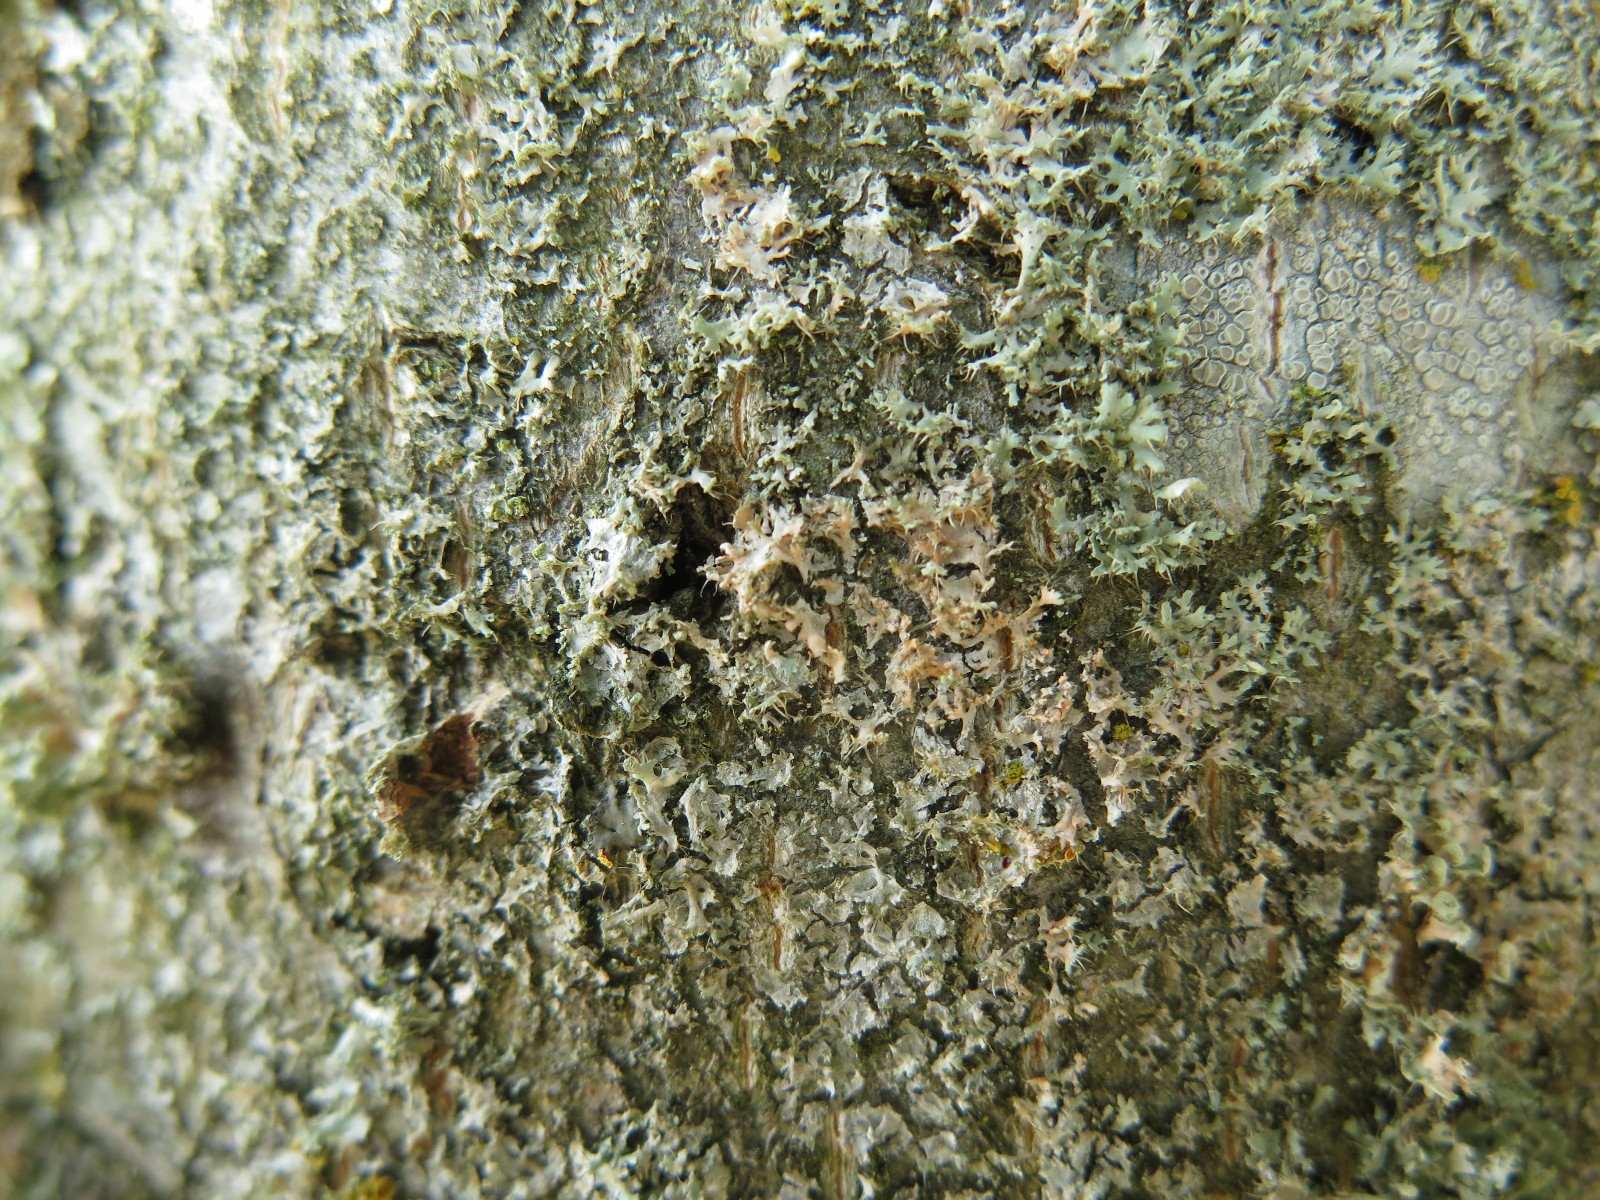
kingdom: Fungi
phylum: Basidiomycota
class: Agaricomycetes
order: Corticiales
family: Corticiaceae
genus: Erythricium
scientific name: Erythricium aurantiacum
